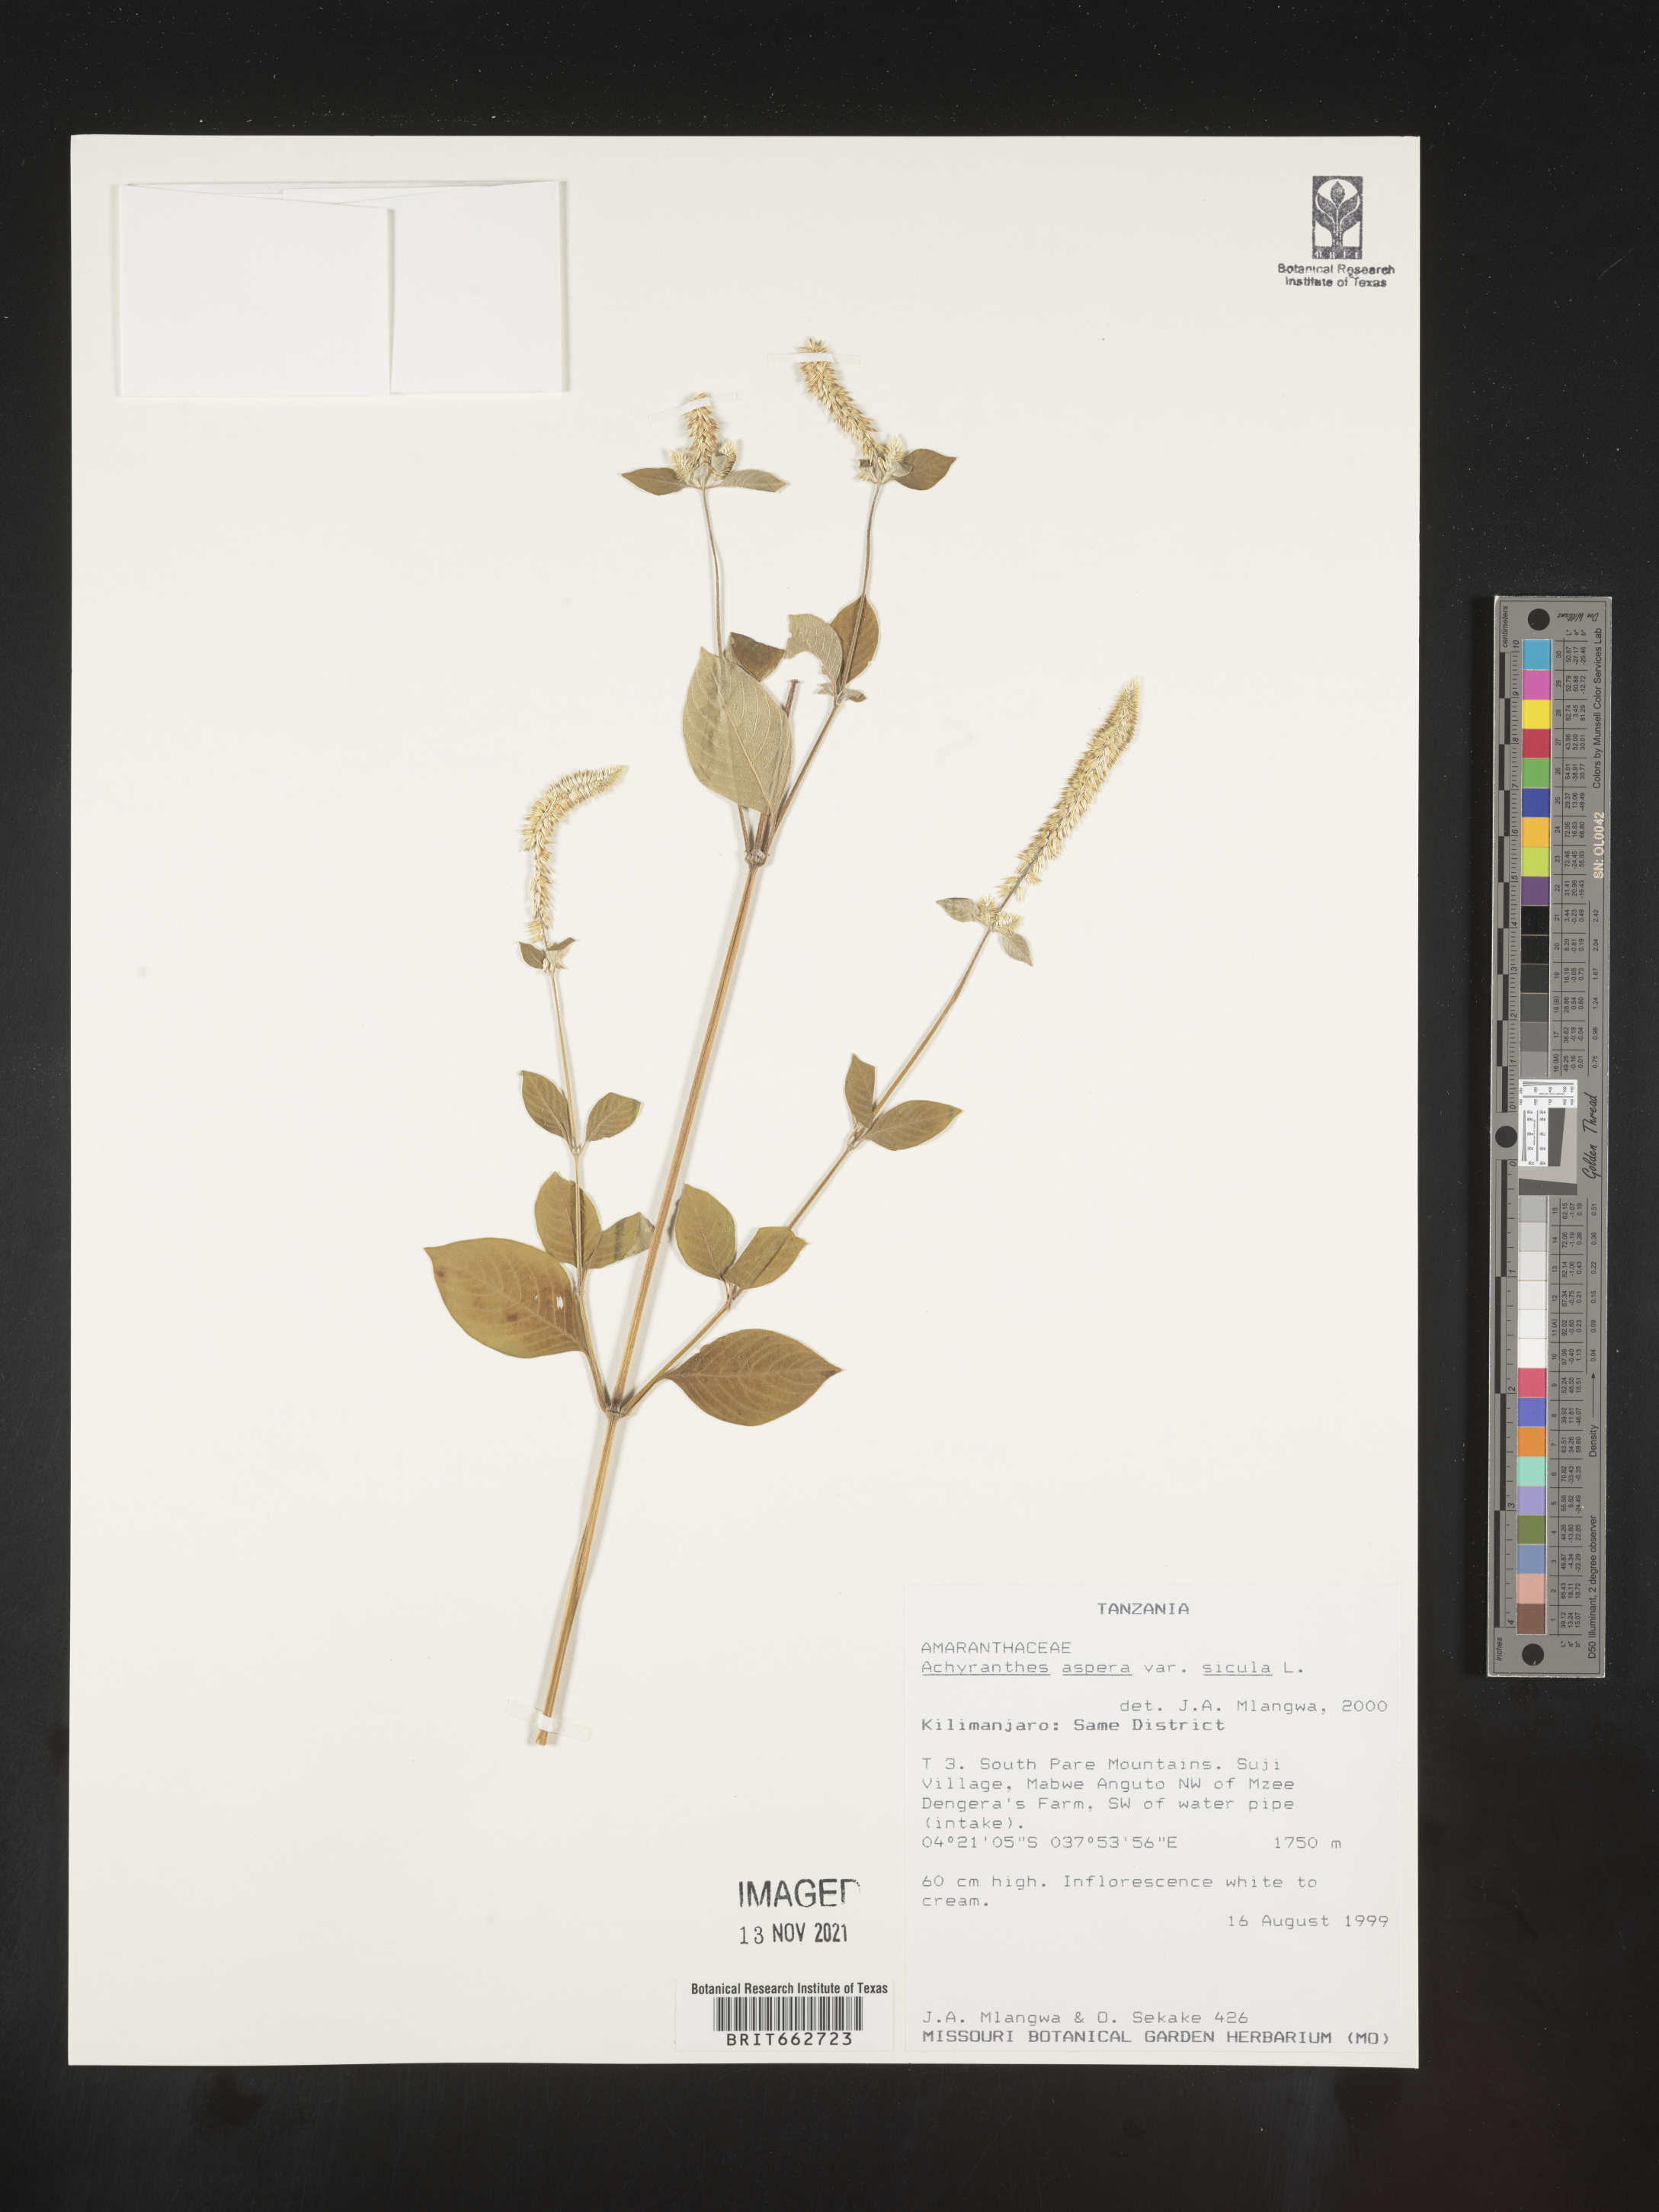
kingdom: Plantae
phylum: Tracheophyta
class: Magnoliopsida
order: Caryophyllales
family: Amaranthaceae
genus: Achyranthes
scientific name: Achyranthes
